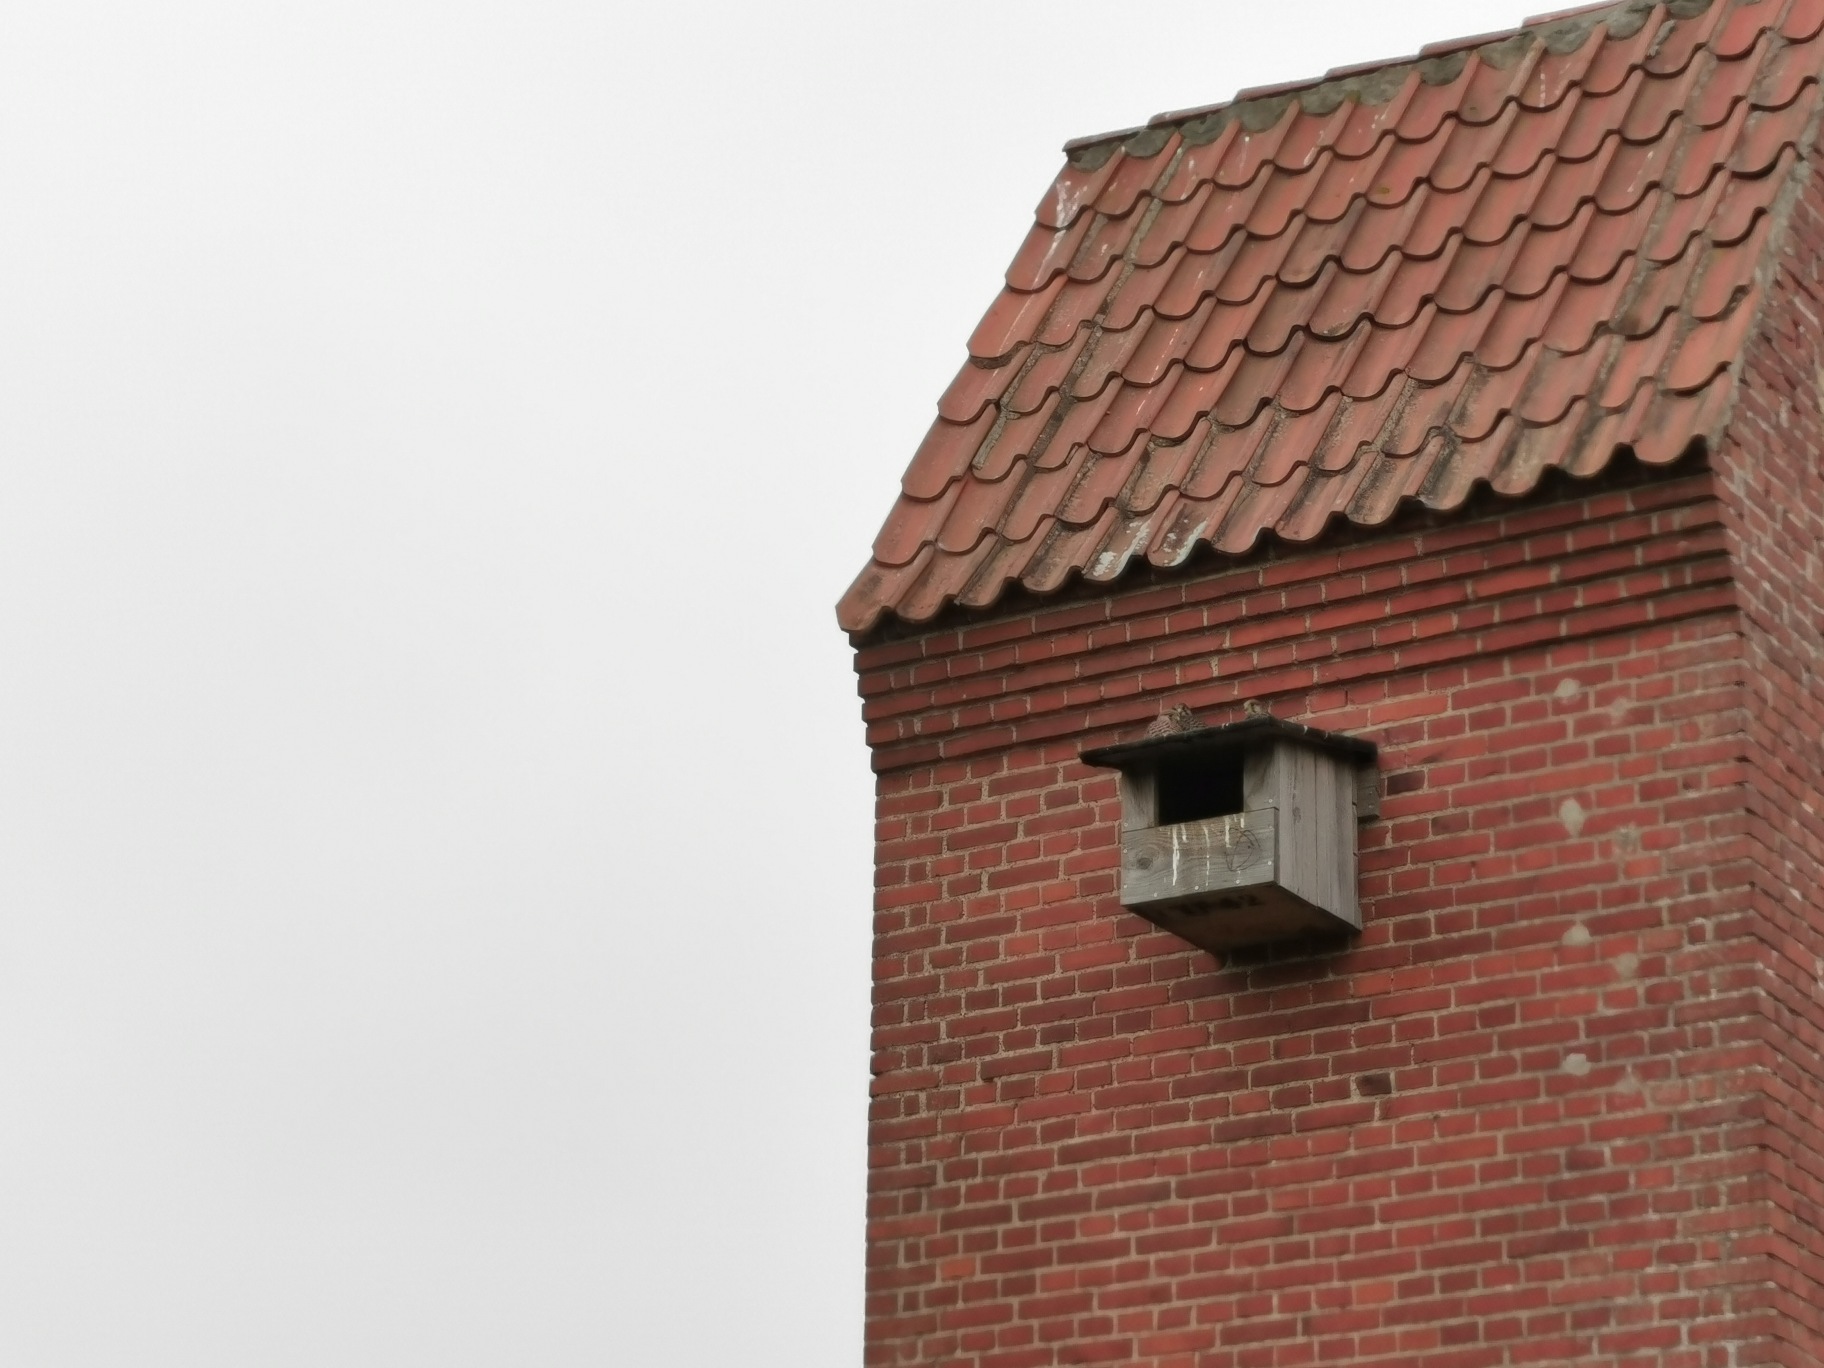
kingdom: Animalia
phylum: Chordata
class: Aves
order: Falconiformes
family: Falconidae
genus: Falco
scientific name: Falco tinnunculus
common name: Tårnfalk
